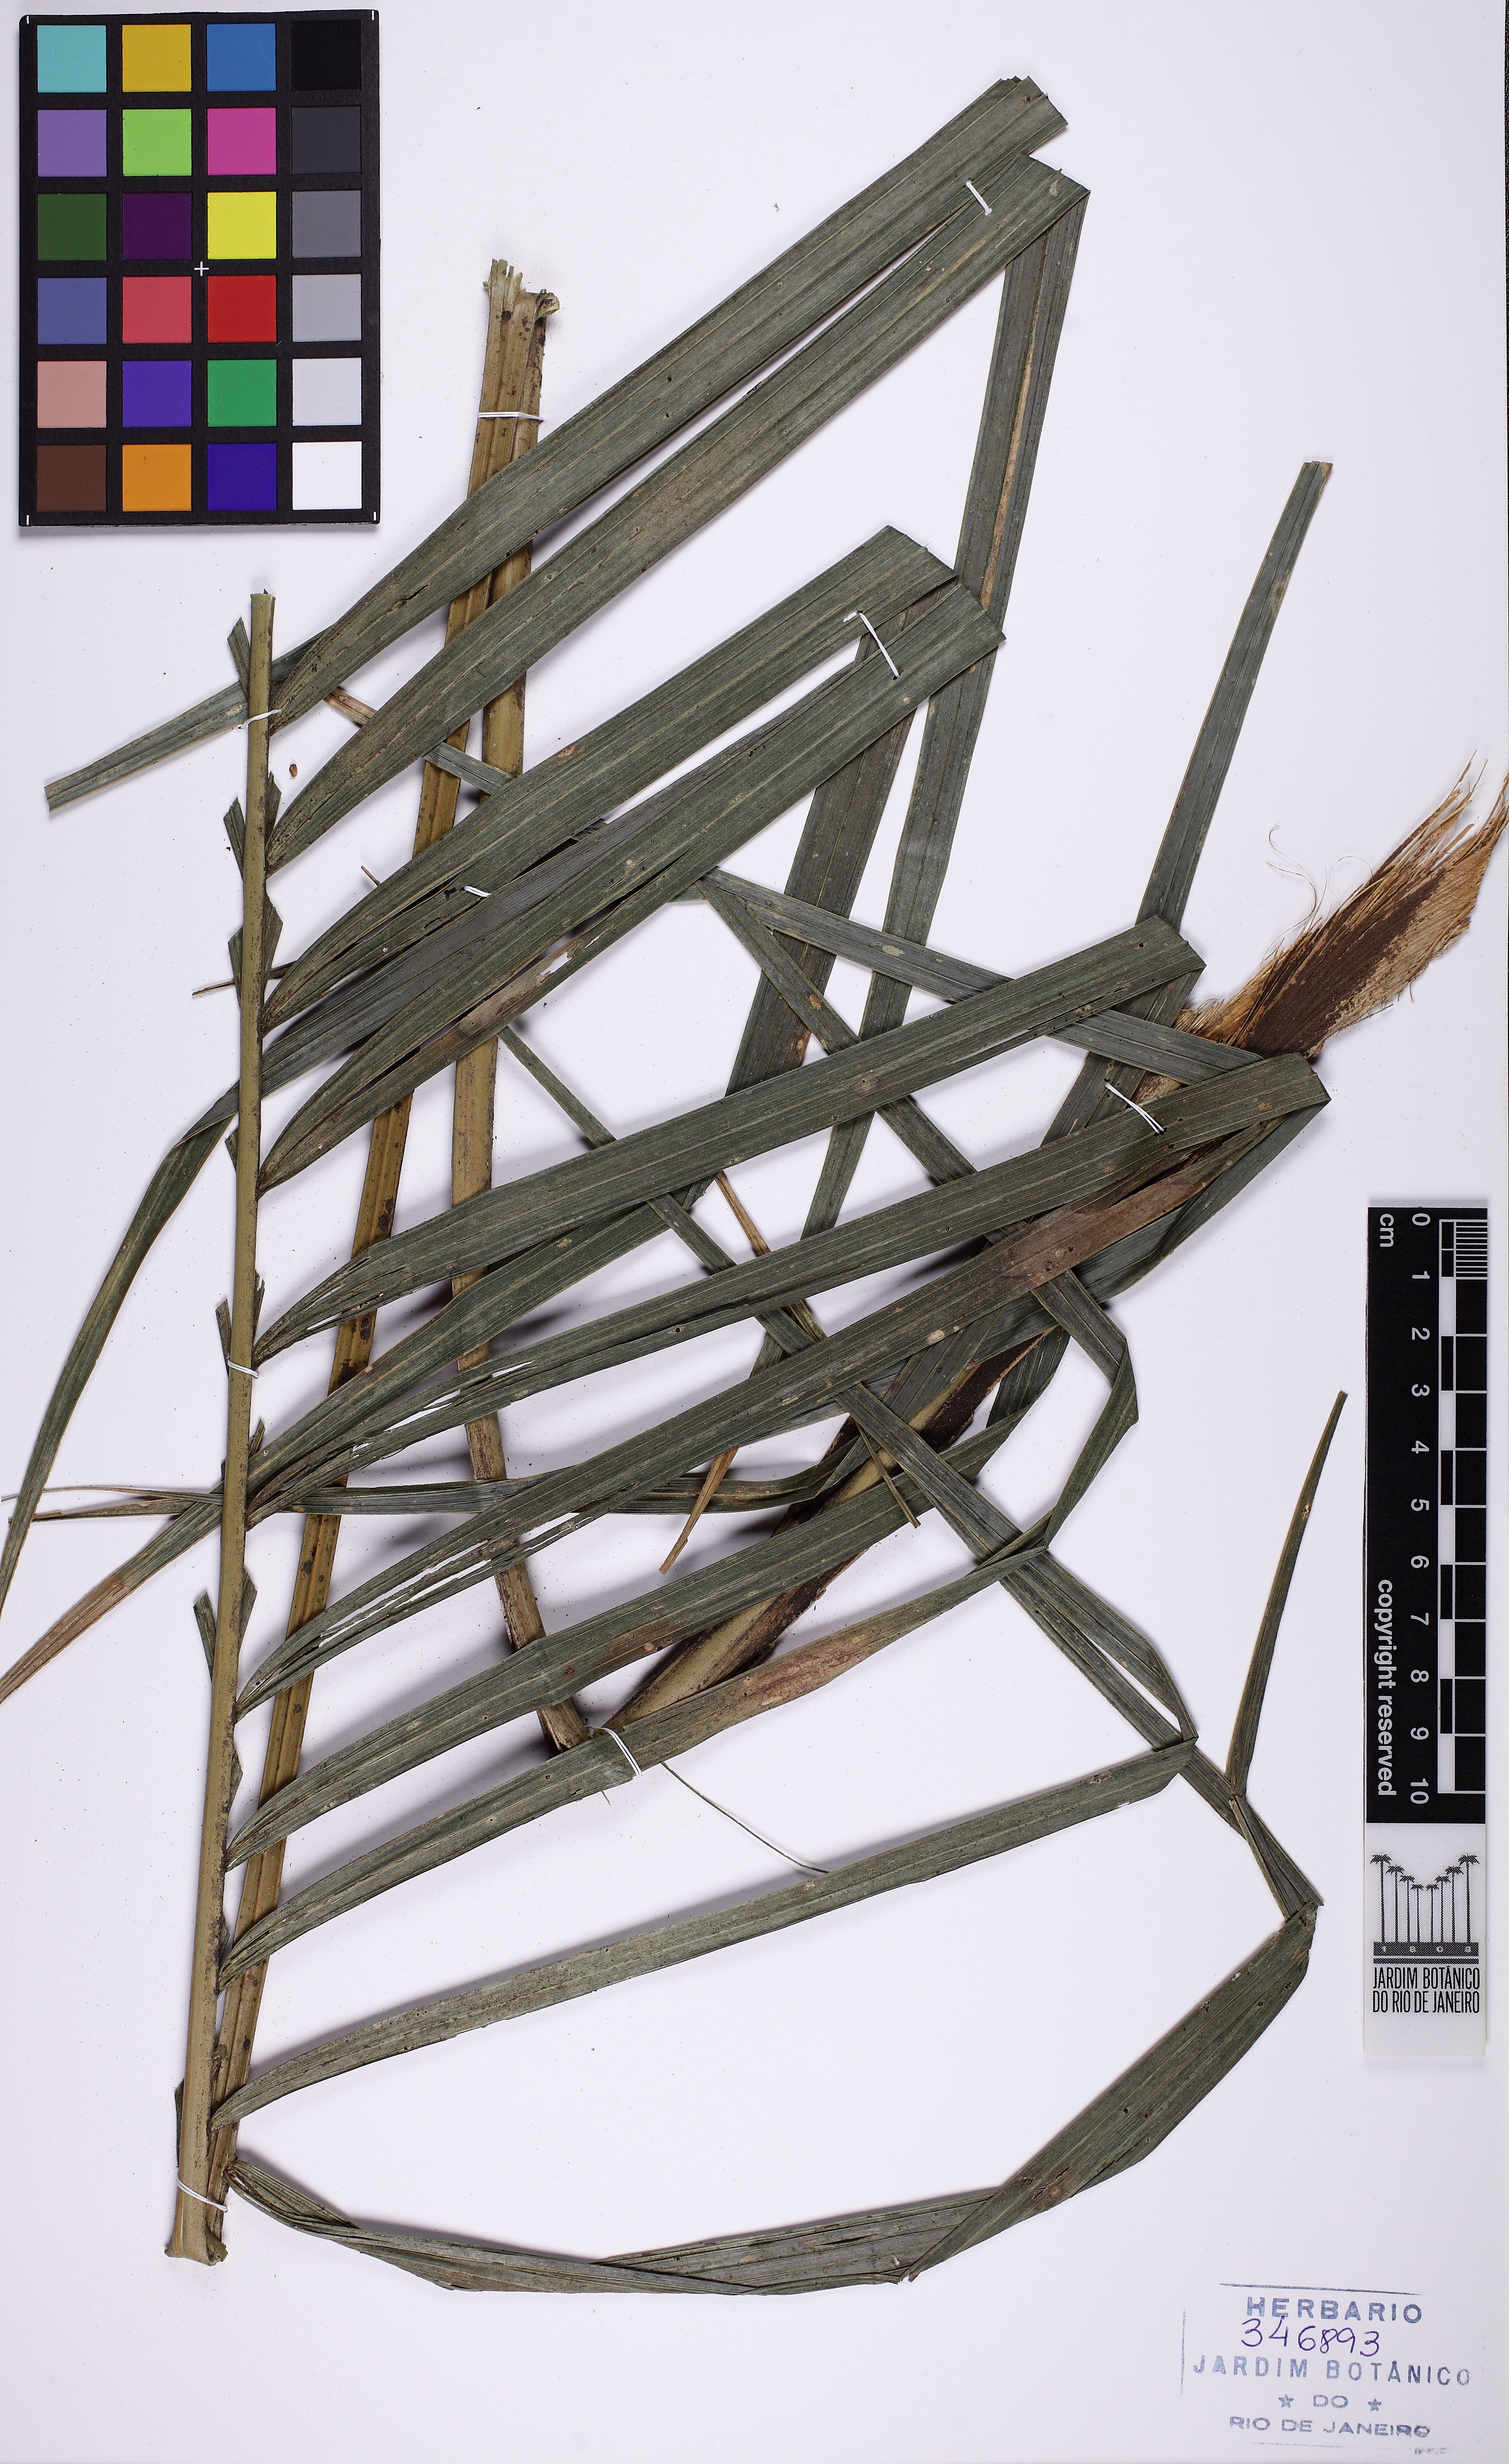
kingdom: Plantae
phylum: Tracheophyta
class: Liliopsida
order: Arecales
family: Arecaceae
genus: Geonoma
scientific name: Geonoma schottiana
